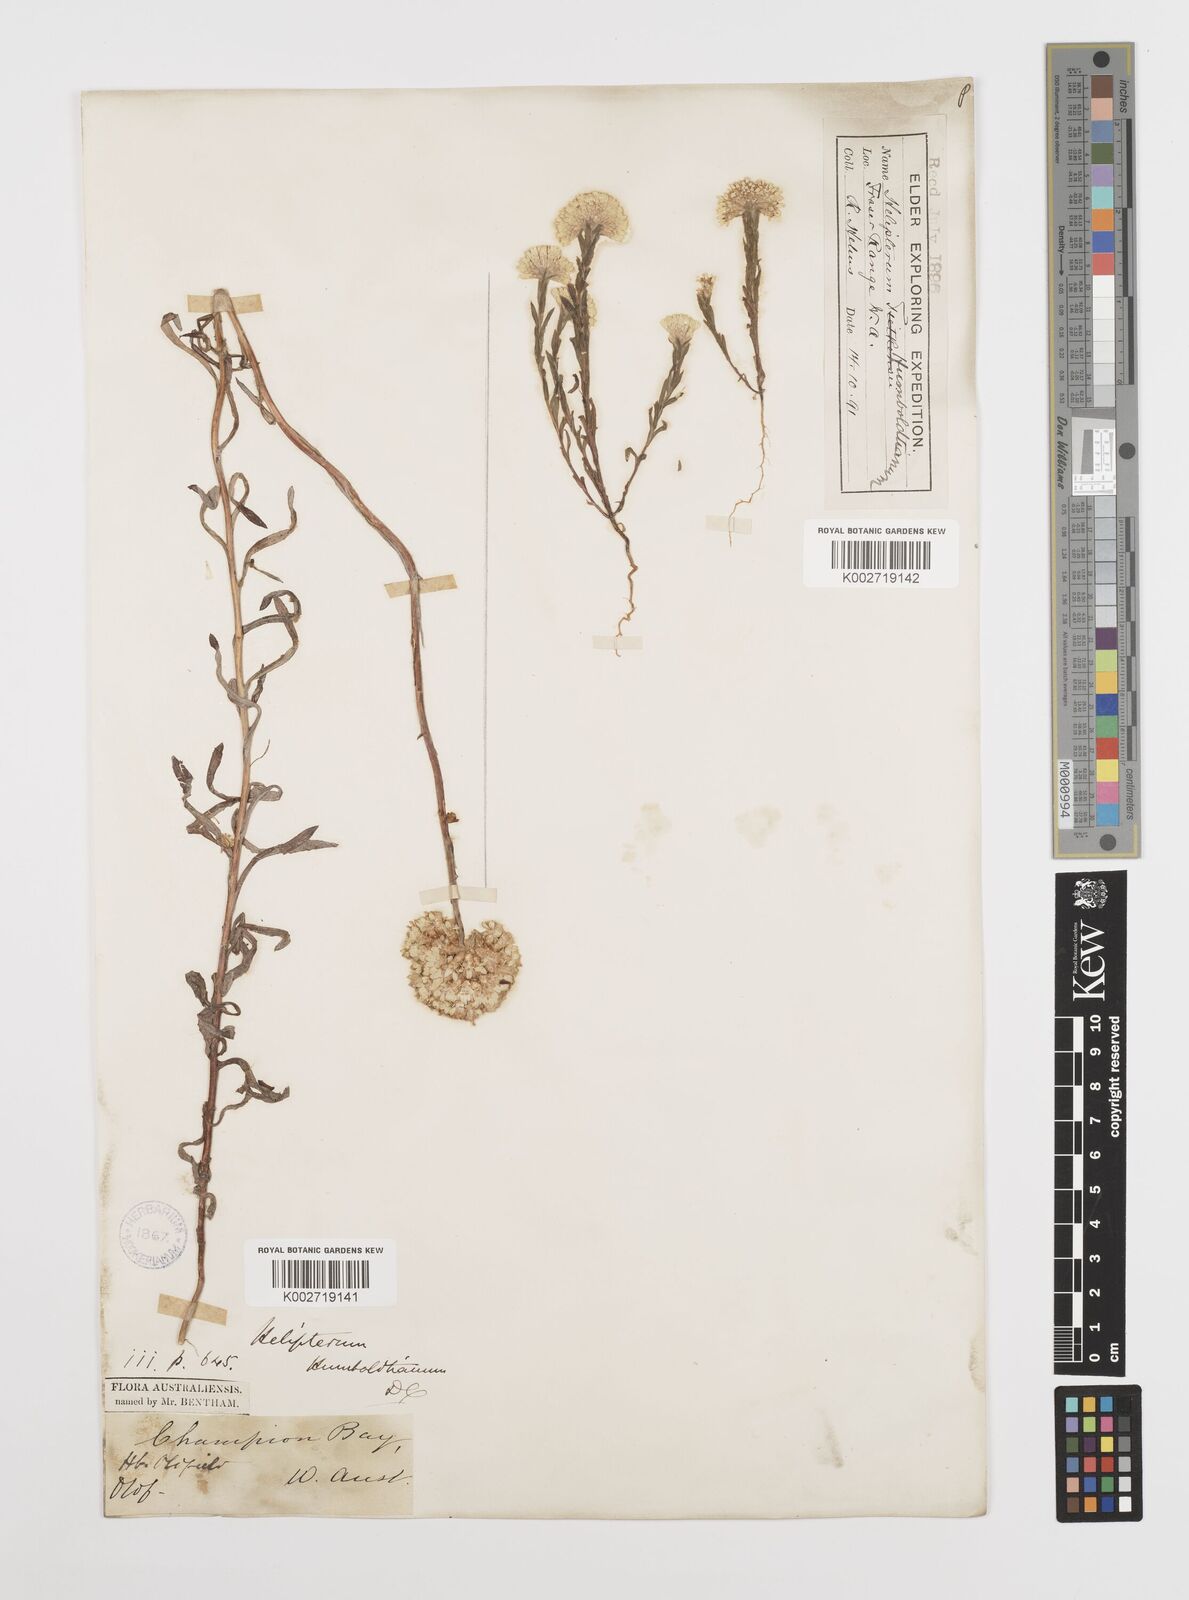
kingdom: Plantae
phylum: Tracheophyta
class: Magnoliopsida
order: Asterales
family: Asteraceae
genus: Rhodanthe
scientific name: Rhodanthe humboldtiana
